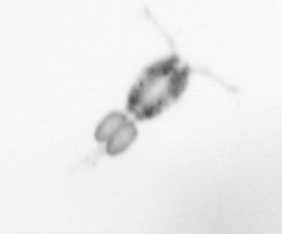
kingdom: Animalia
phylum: Arthropoda
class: Copepoda
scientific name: Copepoda
